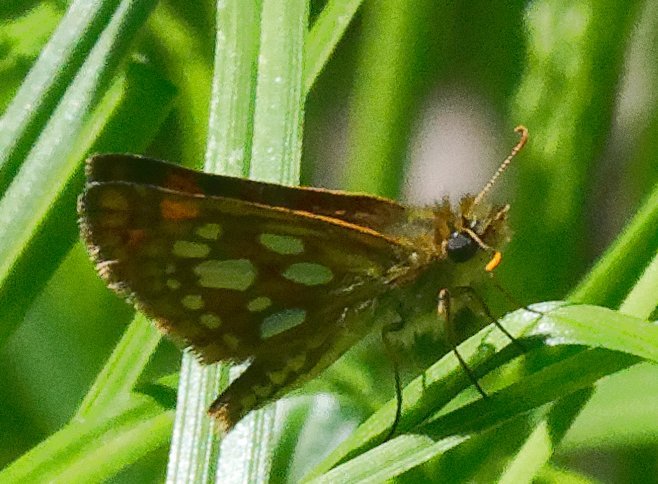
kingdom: Animalia
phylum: Arthropoda
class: Insecta
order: Lepidoptera
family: Hesperiidae
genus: Carterocephalus
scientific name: Carterocephalus mandan
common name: Arctic Skipperling
